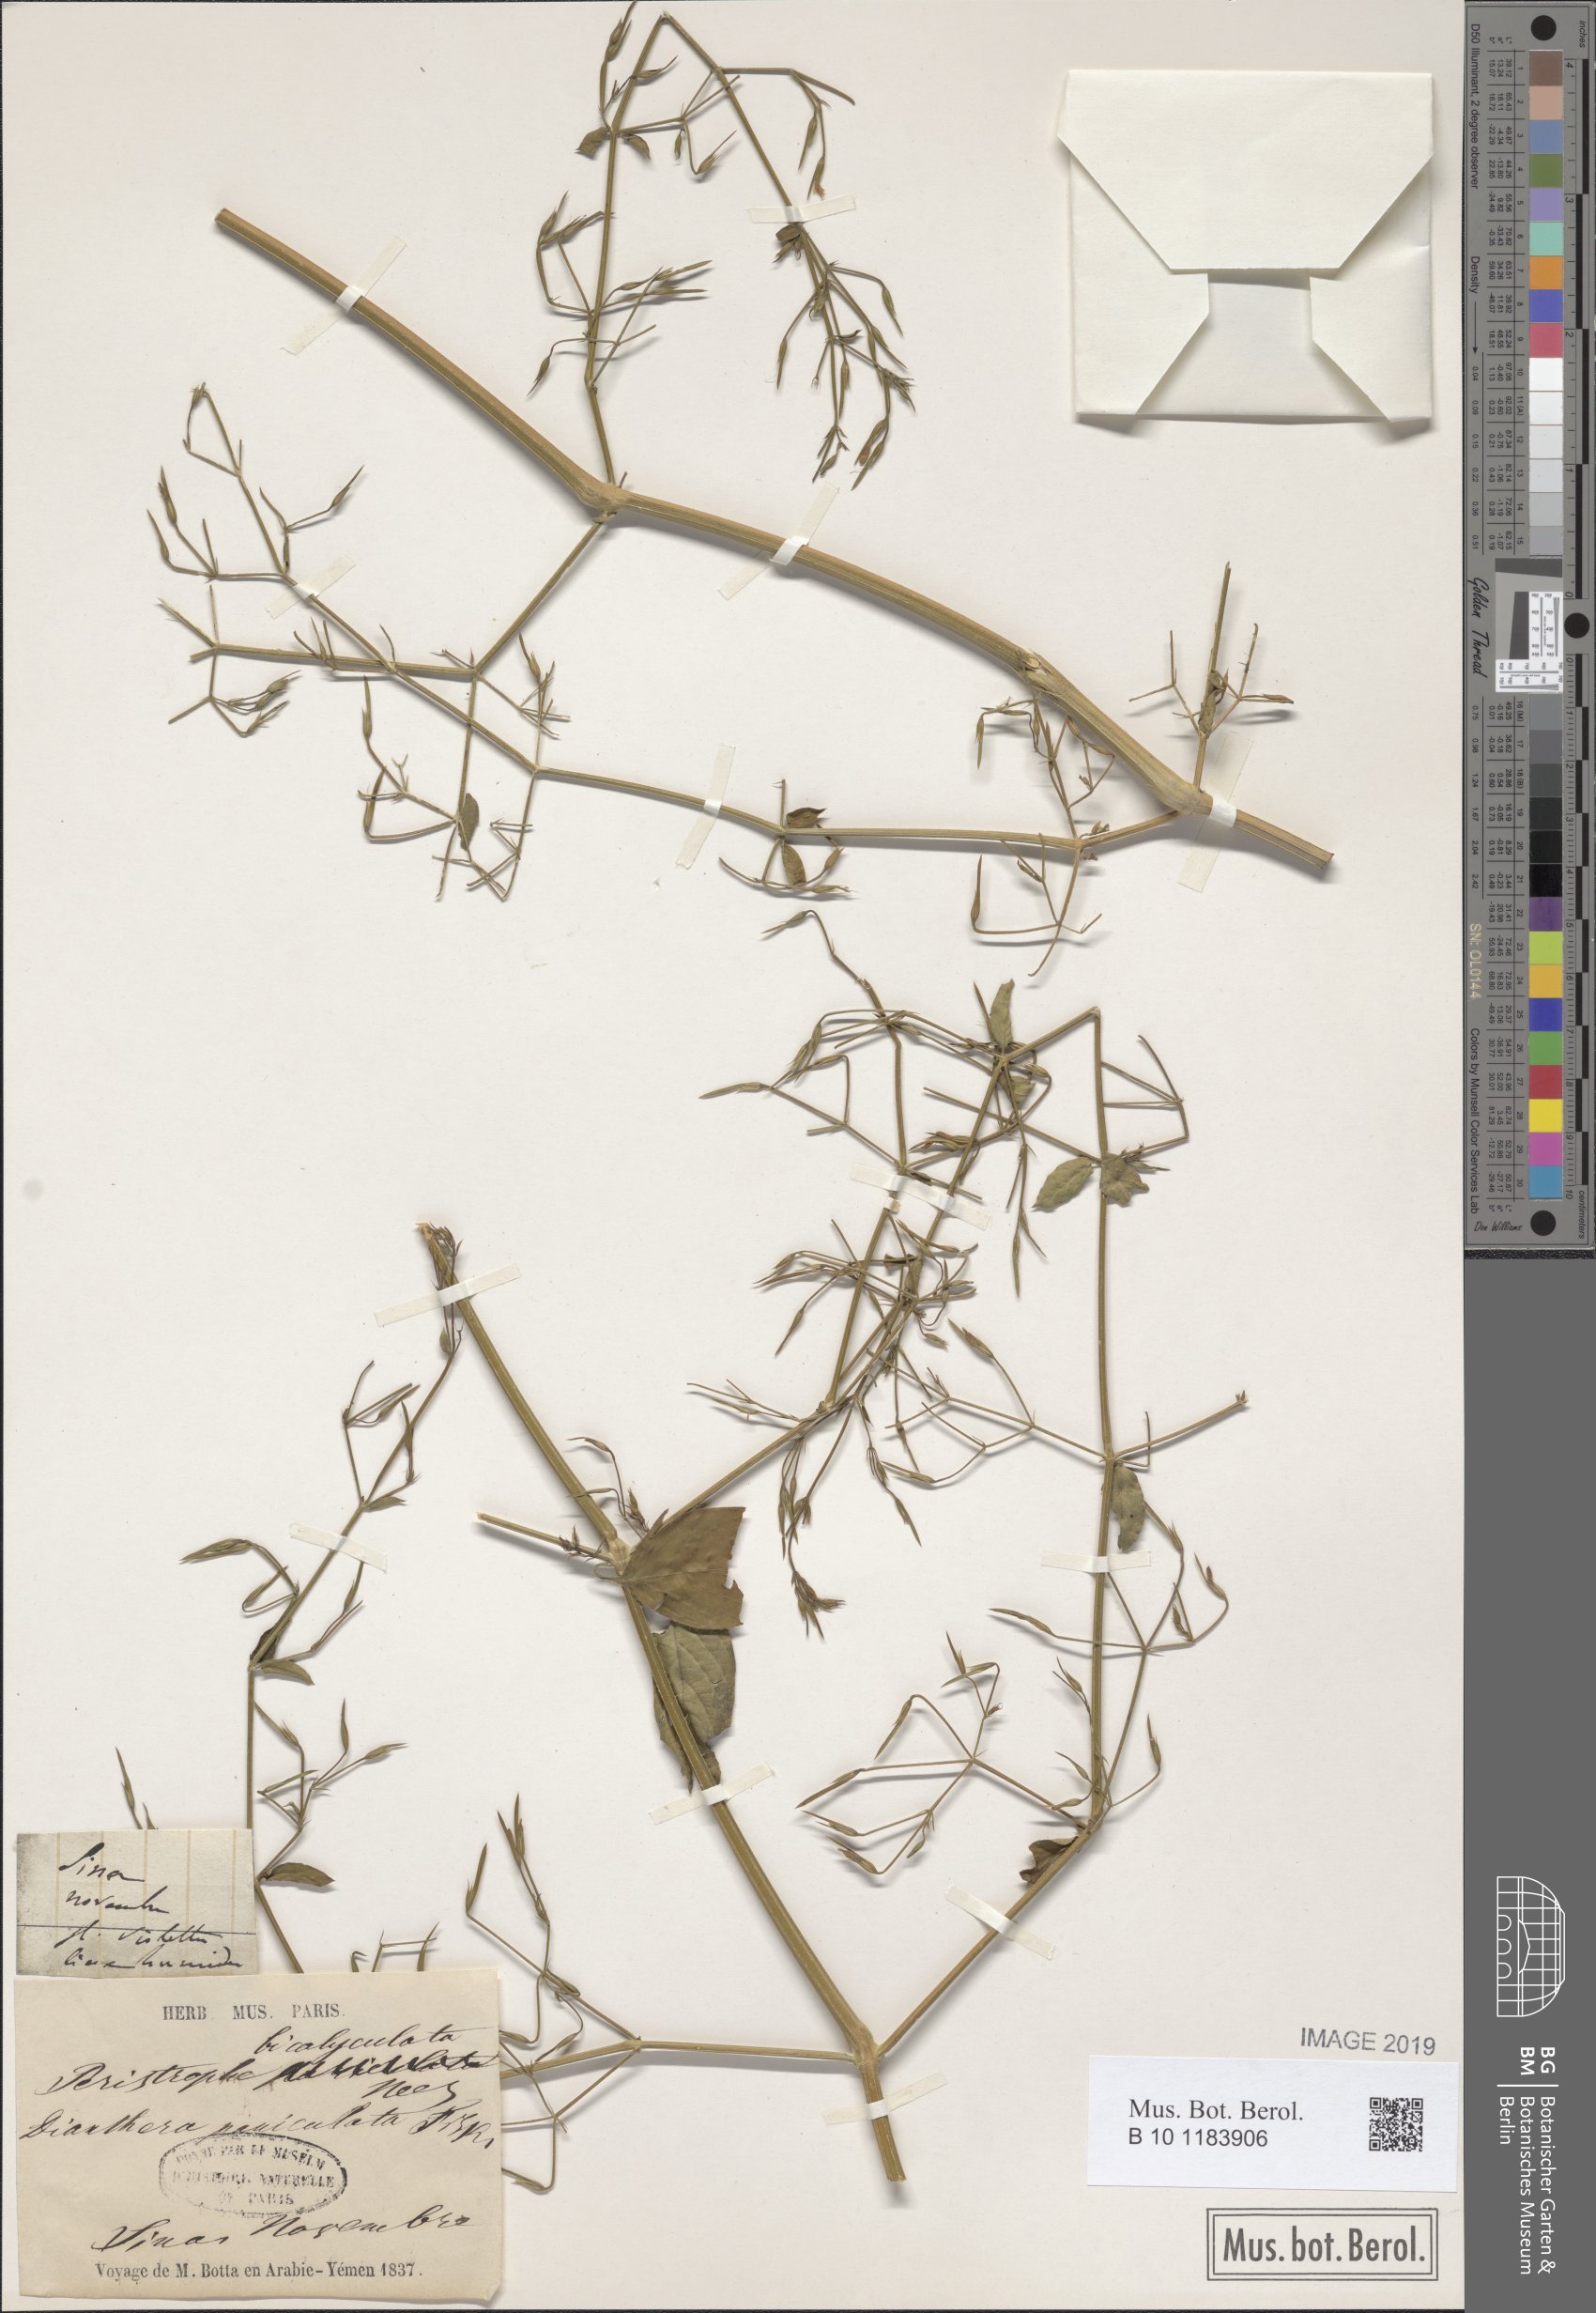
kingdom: Plantae
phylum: Tracheophyta
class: Magnoliopsida
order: Asterales
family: Asteraceae
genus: Senecio
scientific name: Senecio germanicus
